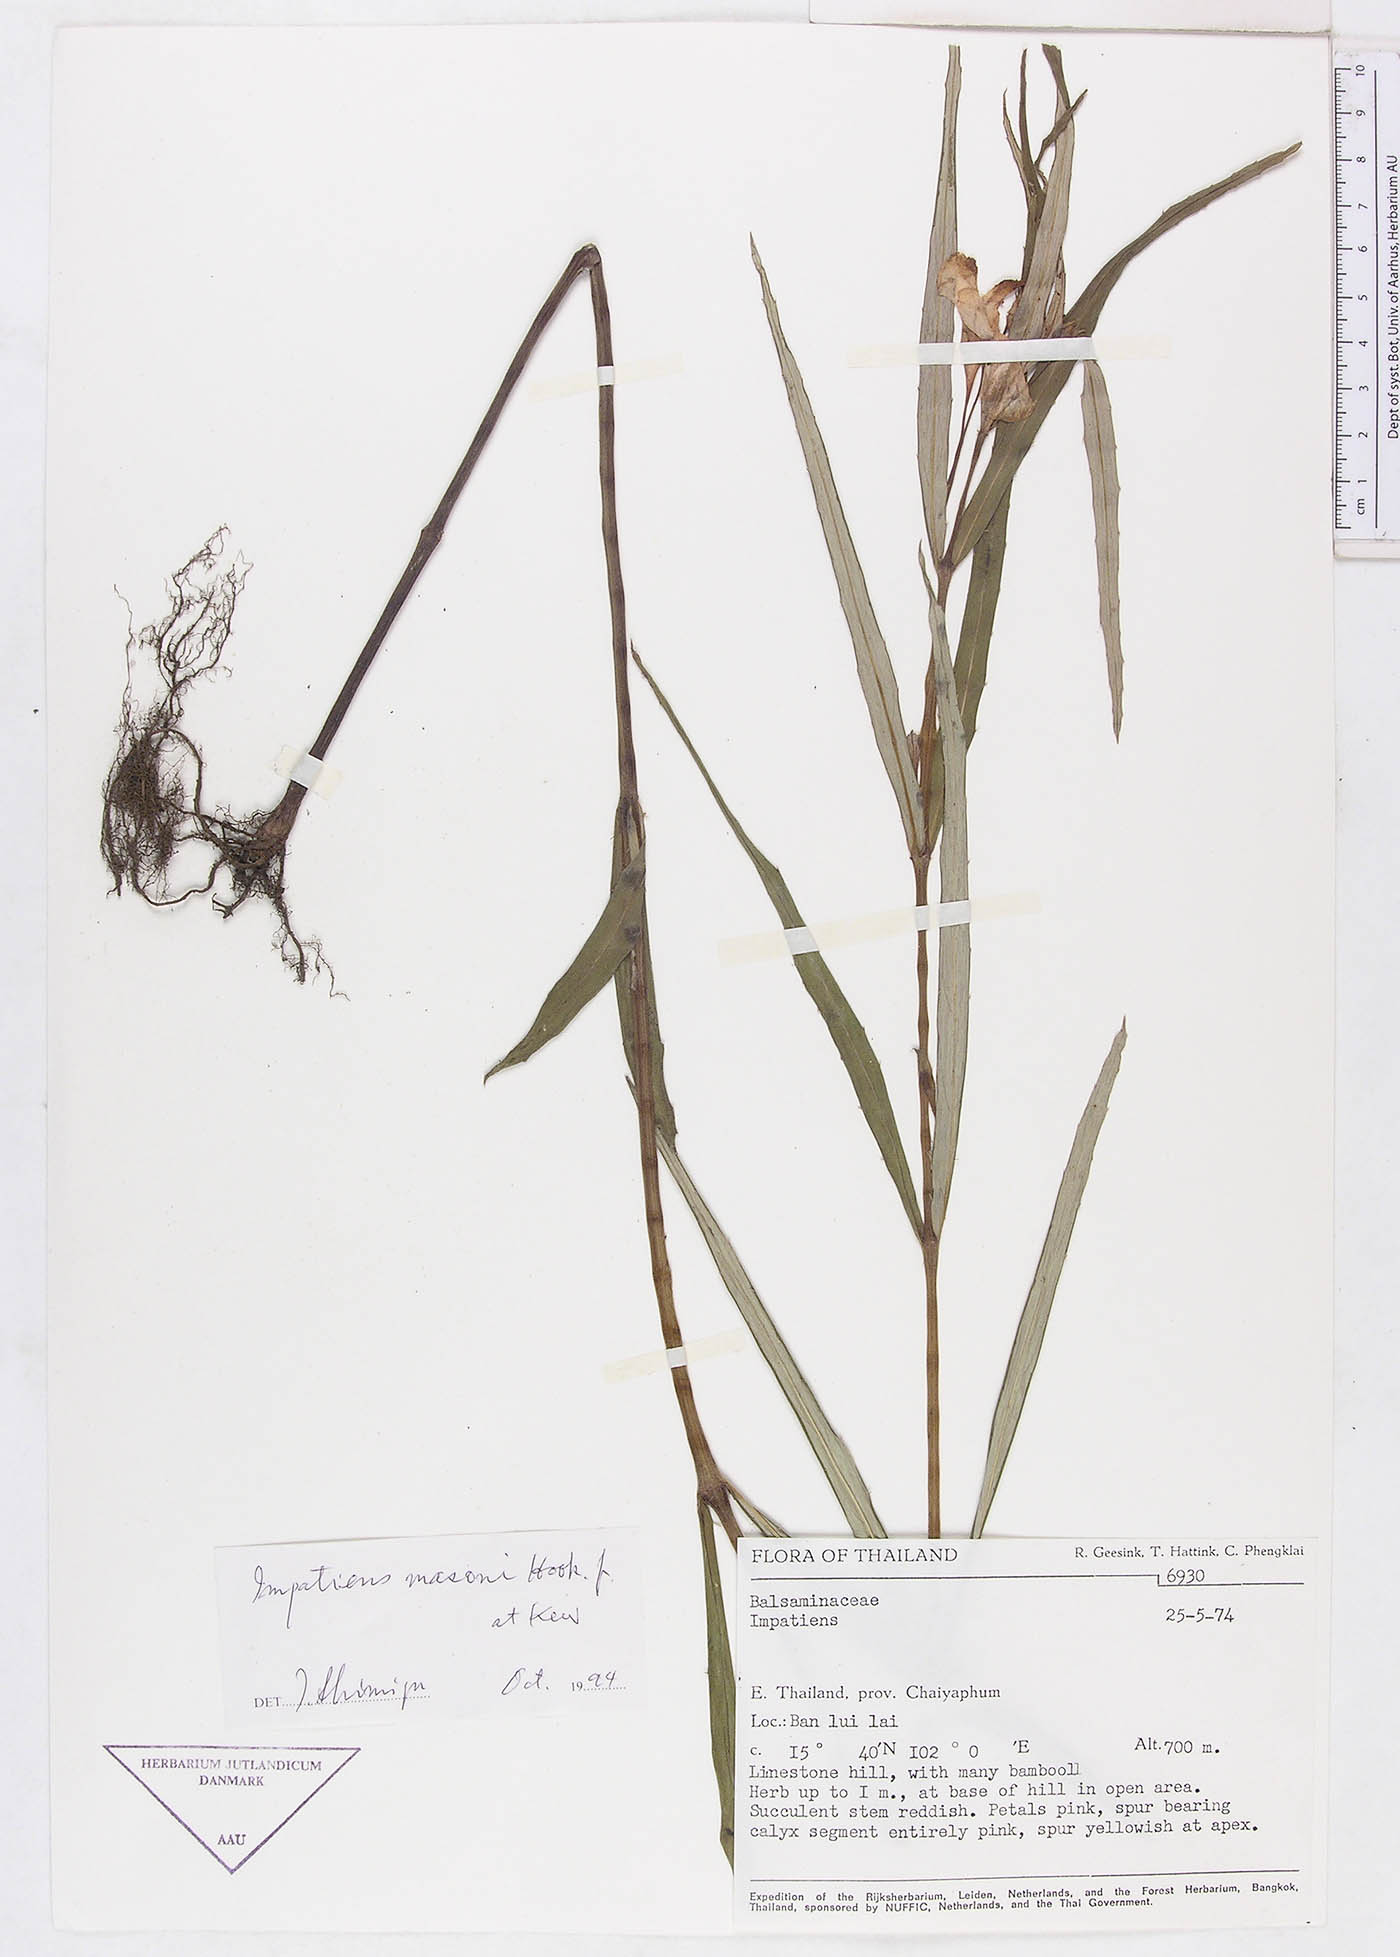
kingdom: Plantae
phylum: Tracheophyta
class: Magnoliopsida
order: Ericales
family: Balsaminaceae
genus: Impatiens
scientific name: Impatiens masonii
